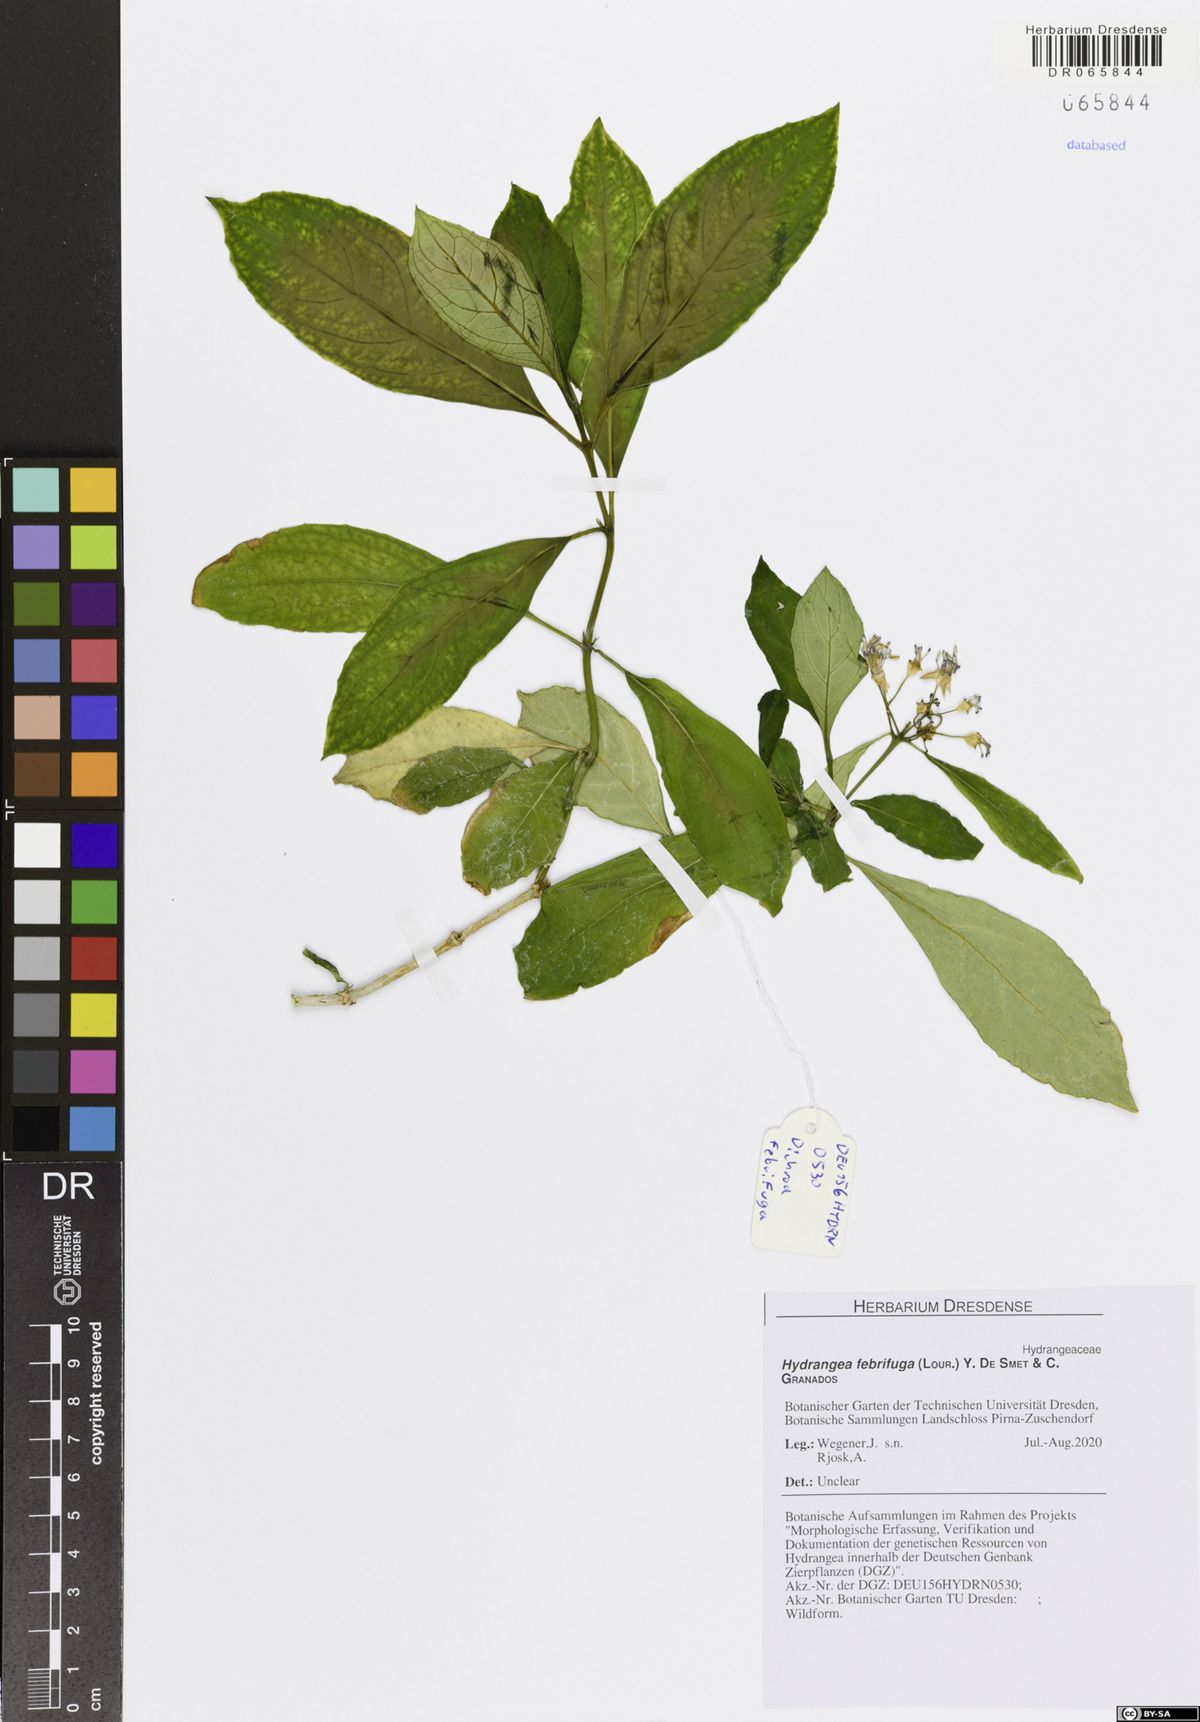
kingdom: Plantae
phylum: Tracheophyta
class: Magnoliopsida
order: Cornales
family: Hydrangeaceae
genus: Hydrangea
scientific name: Hydrangea febrifuga
